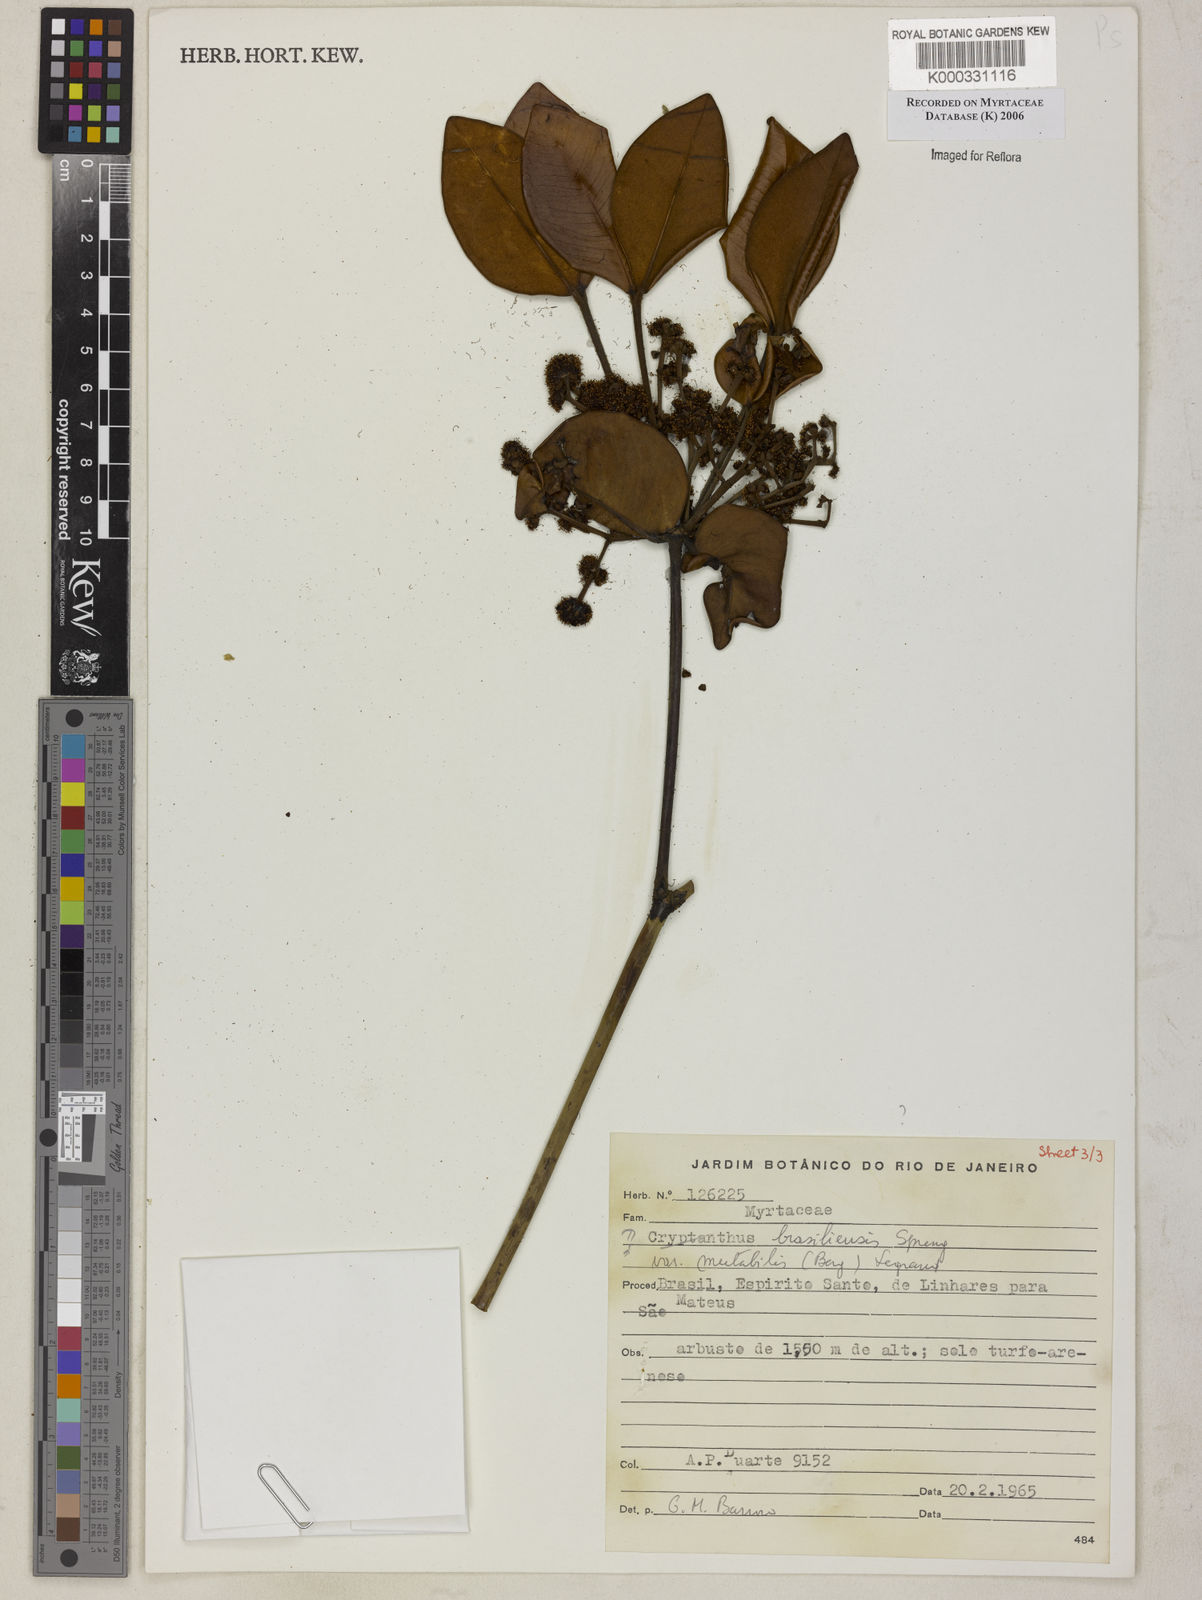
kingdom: Plantae
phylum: Tracheophyta
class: Magnoliopsida
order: Myrtales
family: Myrtaceae
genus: Myrcia
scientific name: Myrcia neobrasiliensis
